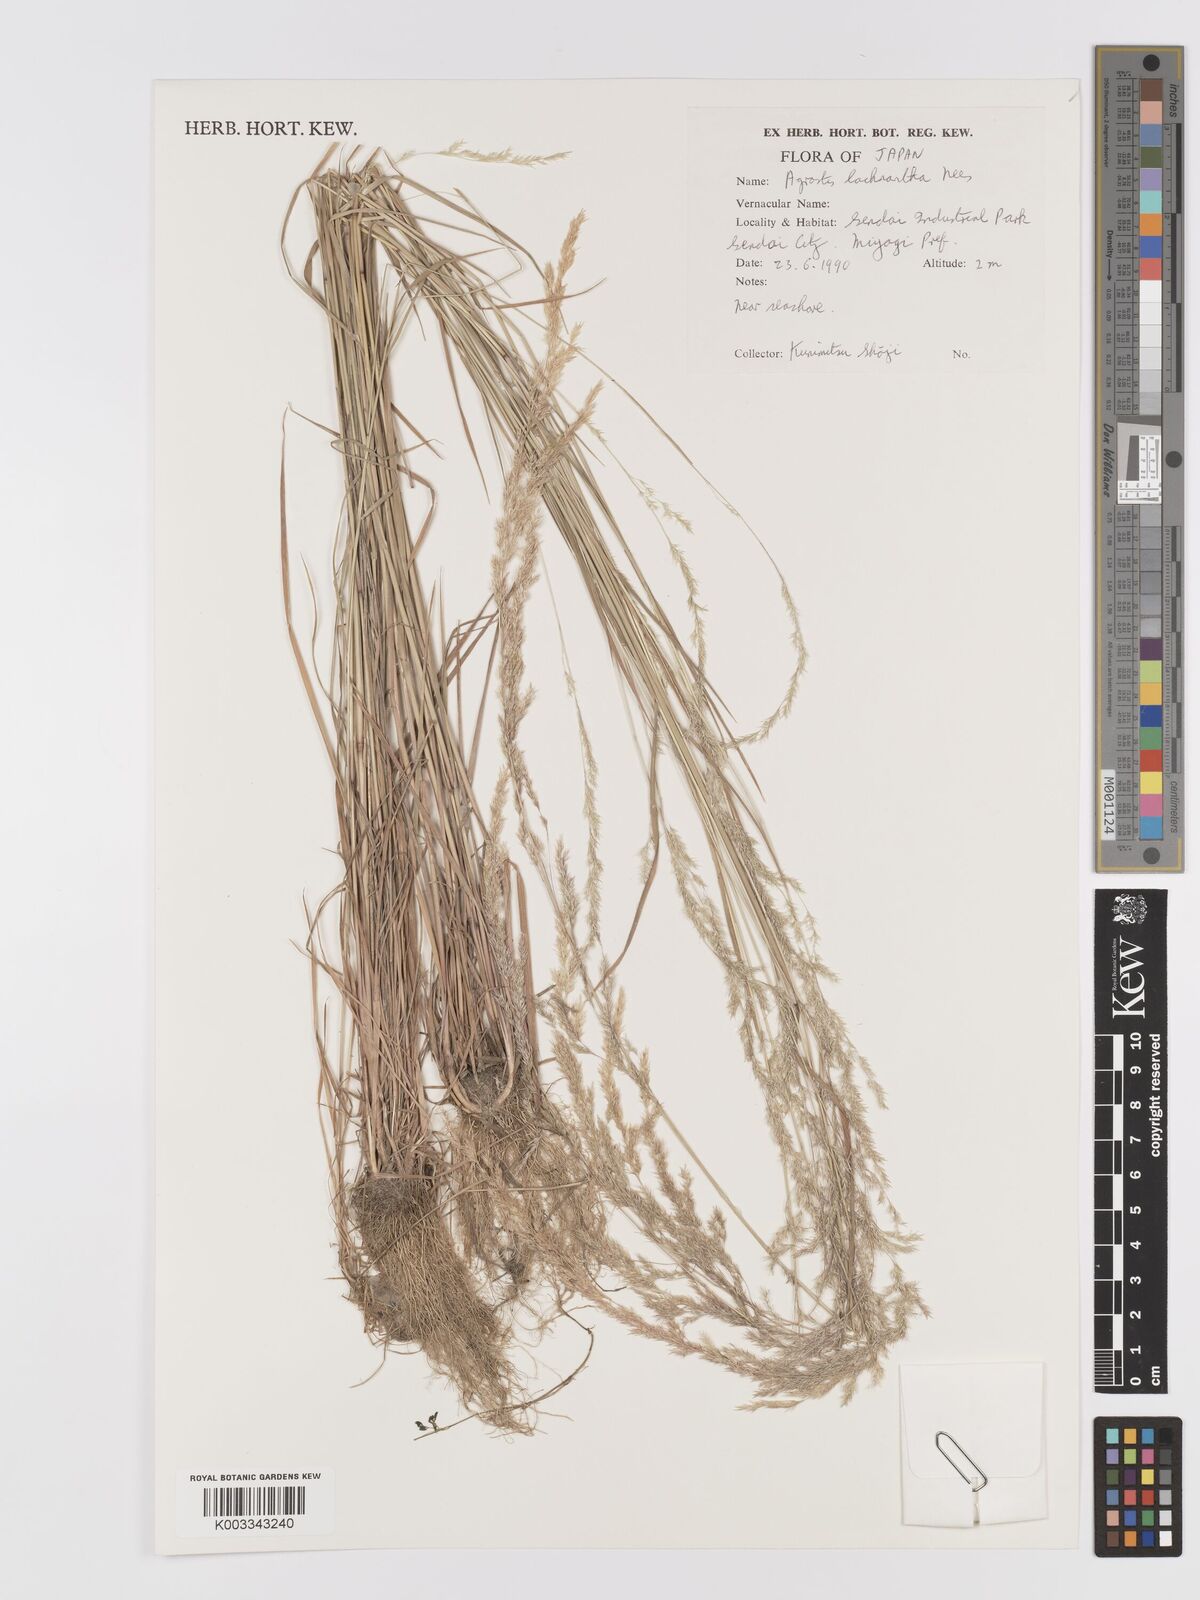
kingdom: Plantae
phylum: Tracheophyta
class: Liliopsida
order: Poales
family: Poaceae
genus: Lachnagrostis
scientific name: Lachnagrostis lachnantha
